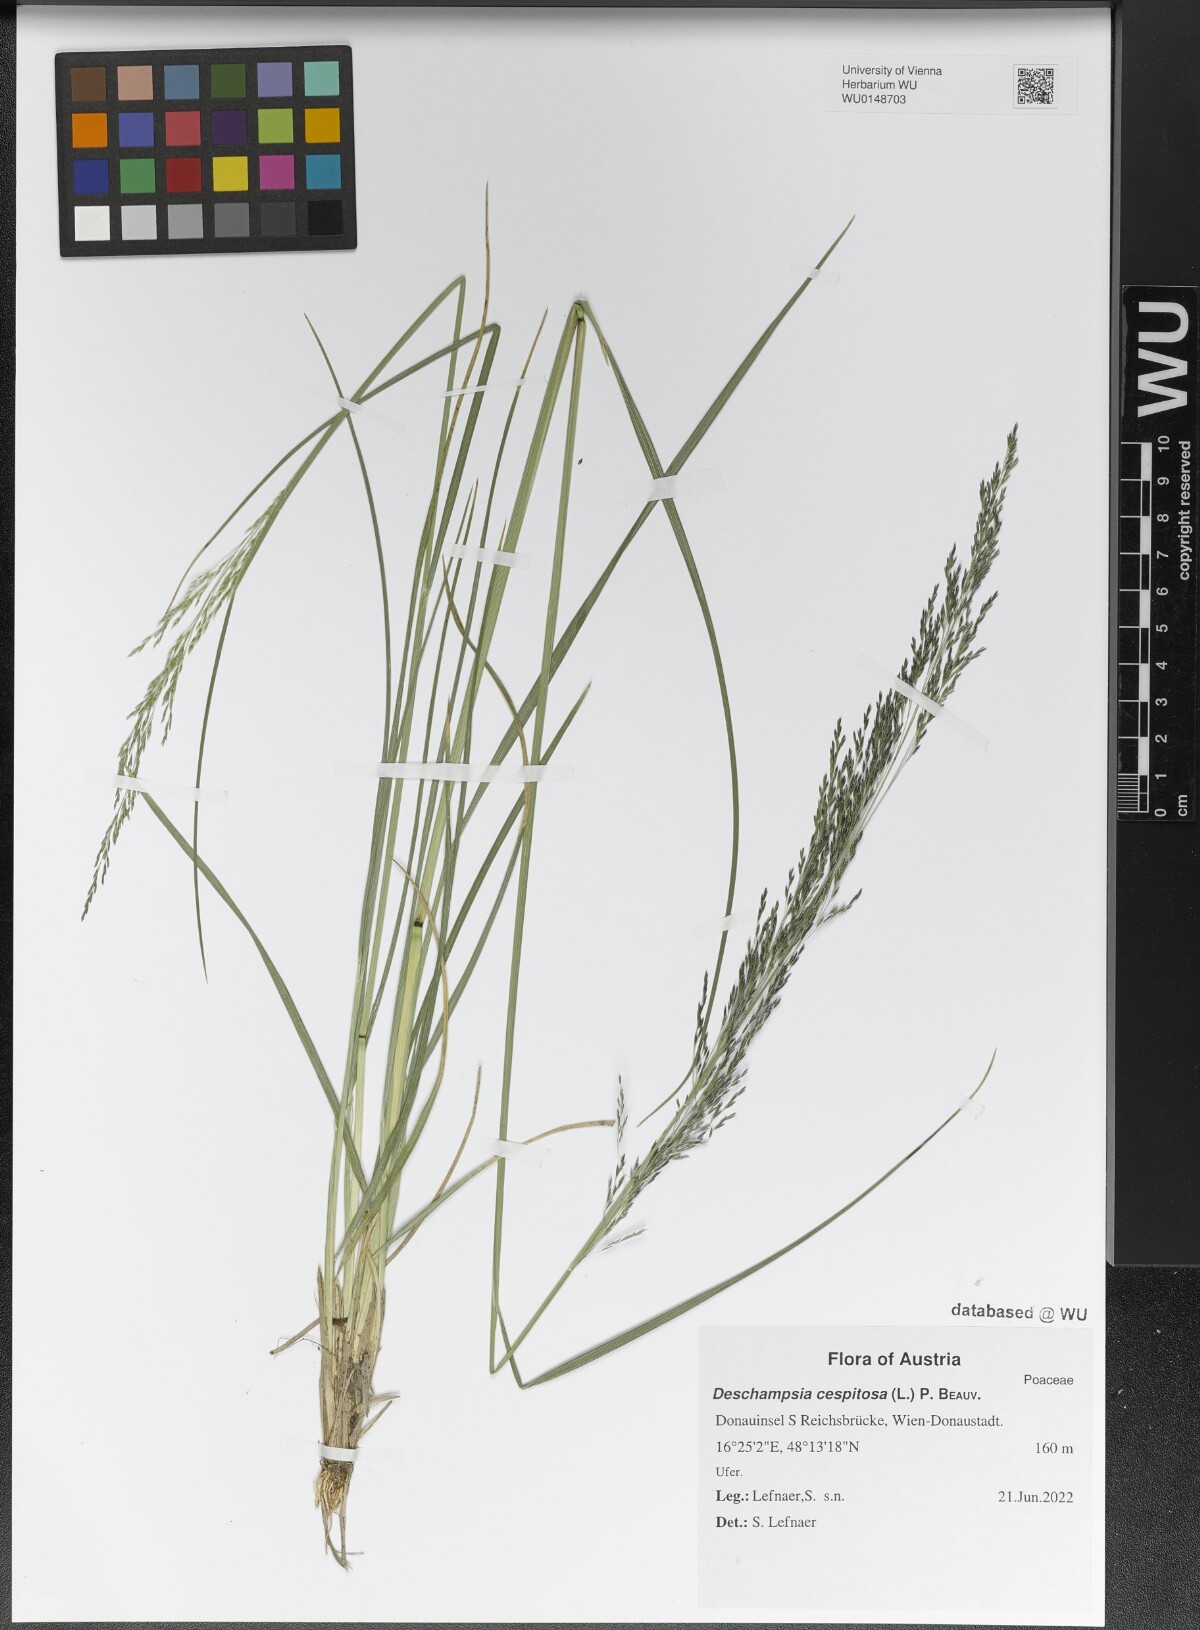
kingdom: Plantae
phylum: Tracheophyta
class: Liliopsida
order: Poales
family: Poaceae
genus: Deschampsia
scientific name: Deschampsia cespitosa
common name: Tufted hair-grass
